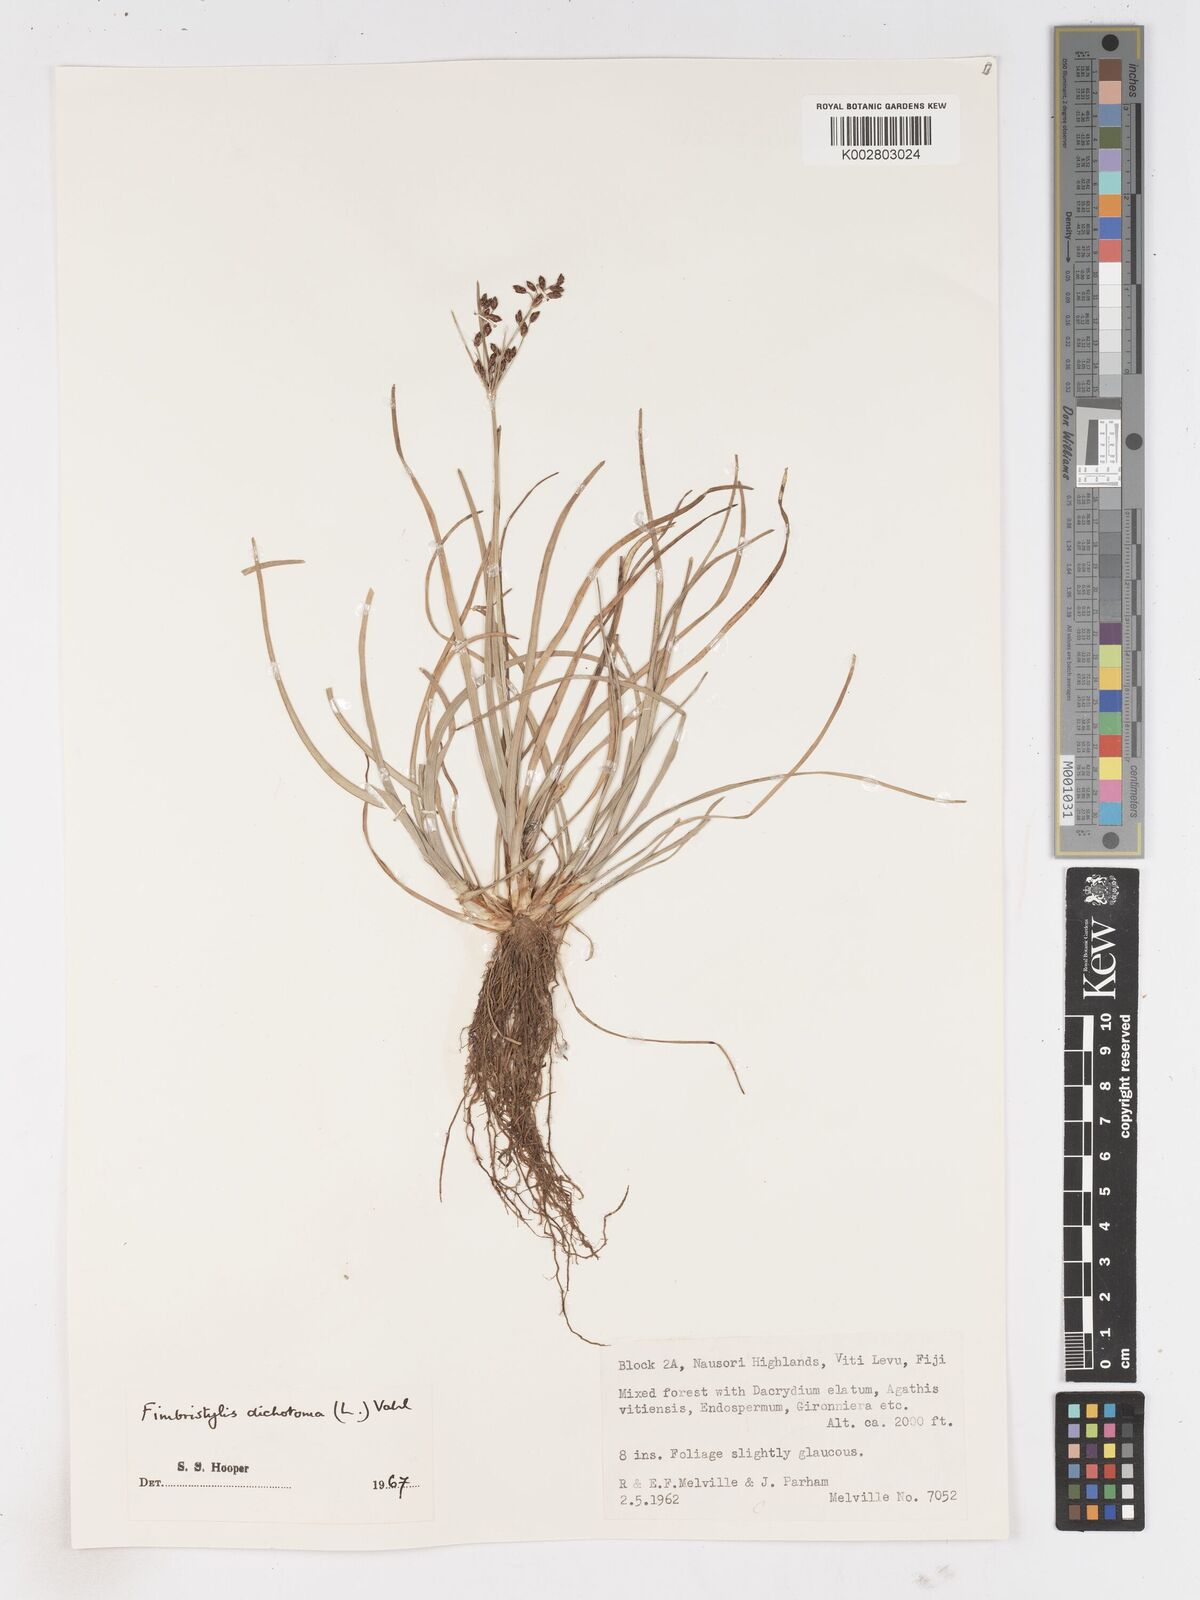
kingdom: Plantae
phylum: Tracheophyta
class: Liliopsida
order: Poales
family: Cyperaceae
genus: Fimbristylis
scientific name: Fimbristylis dichotoma
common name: Forked fimbry
